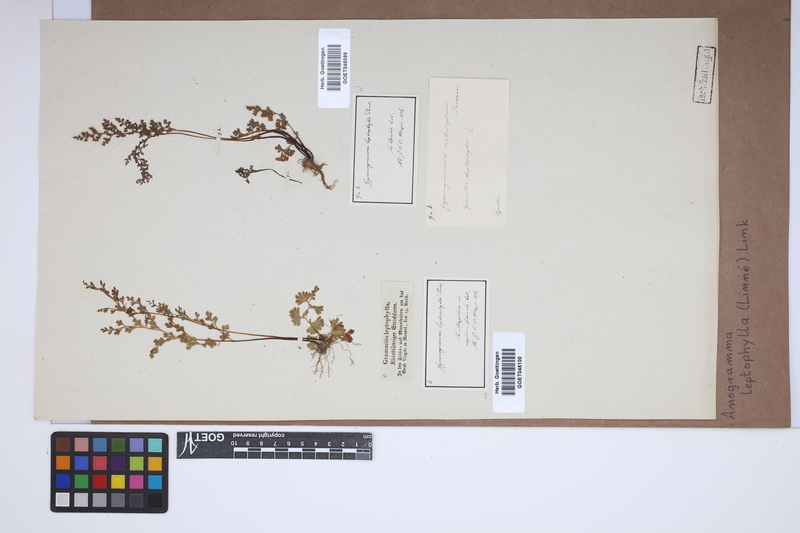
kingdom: Plantae
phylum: Tracheophyta
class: Polypodiopsida
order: Polypodiales
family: Pteridaceae
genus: Anogramma
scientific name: Anogramma leptophylla
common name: Jersey fern
